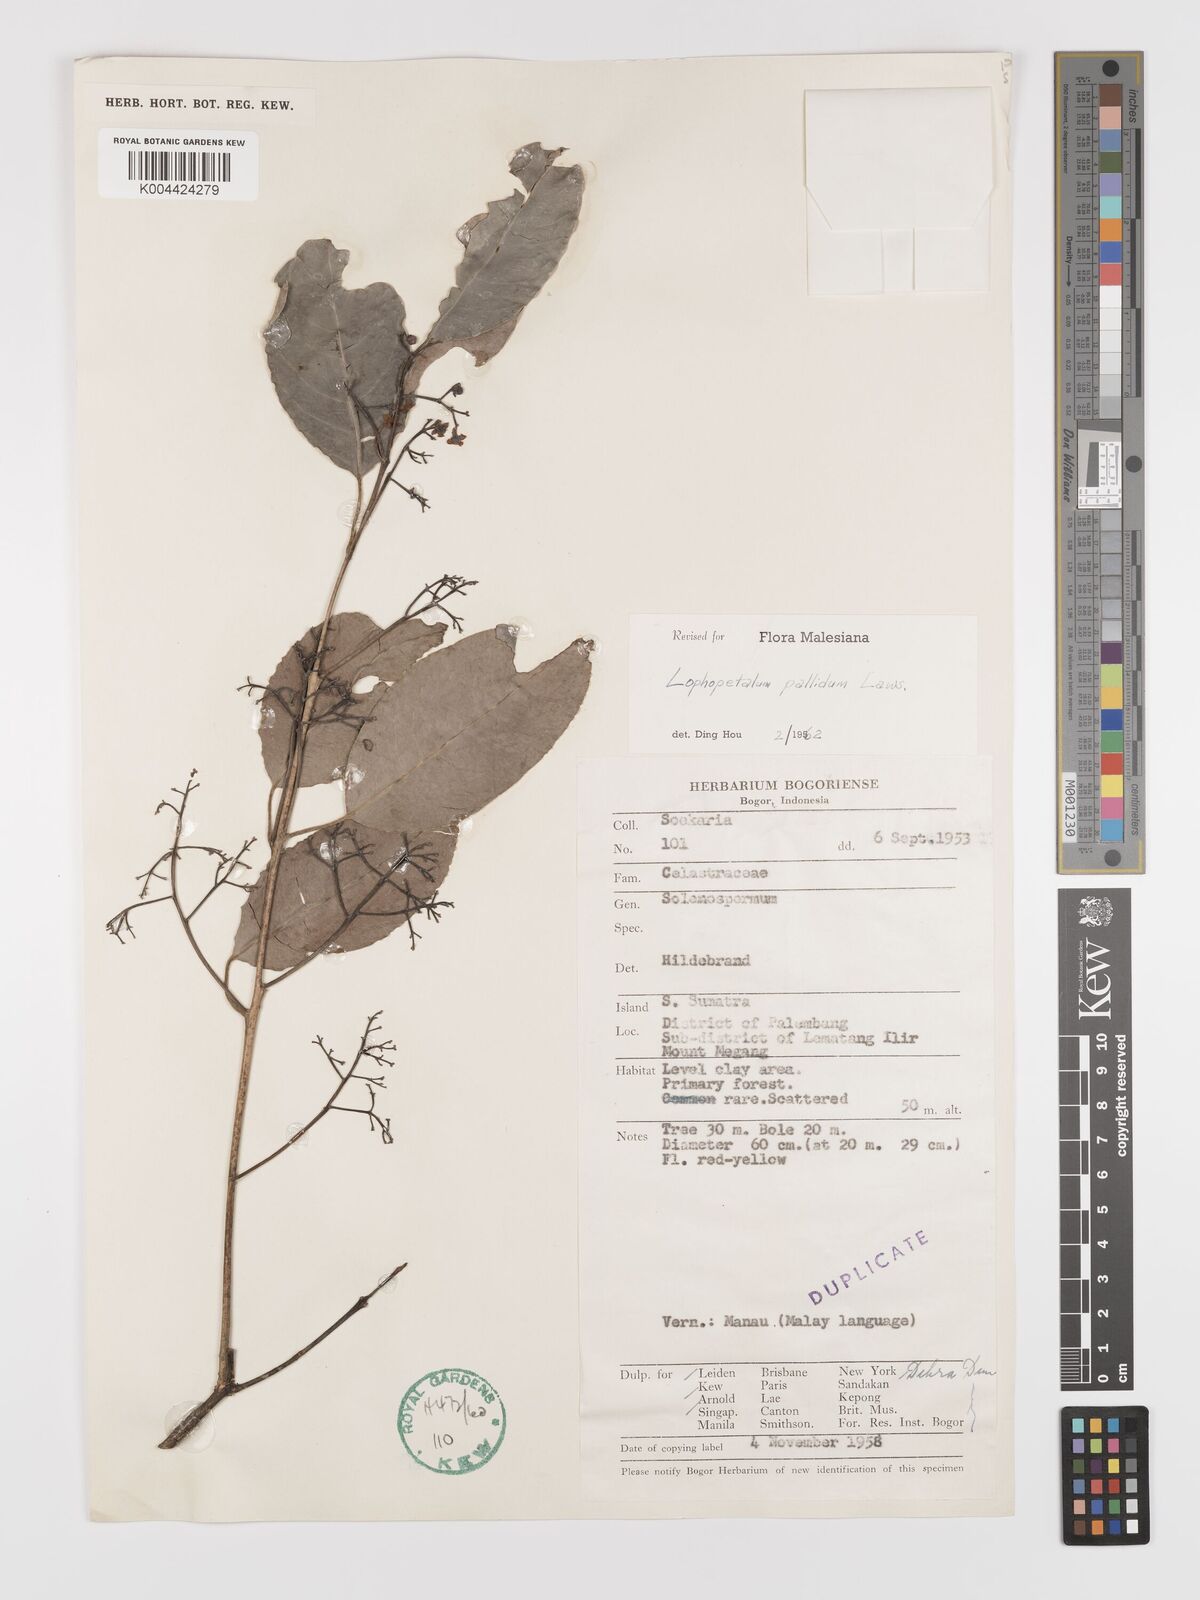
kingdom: Plantae
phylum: Tracheophyta
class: Magnoliopsida
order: Celastrales
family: Celastraceae
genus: Lophopetalum
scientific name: Lophopetalum pallidum
